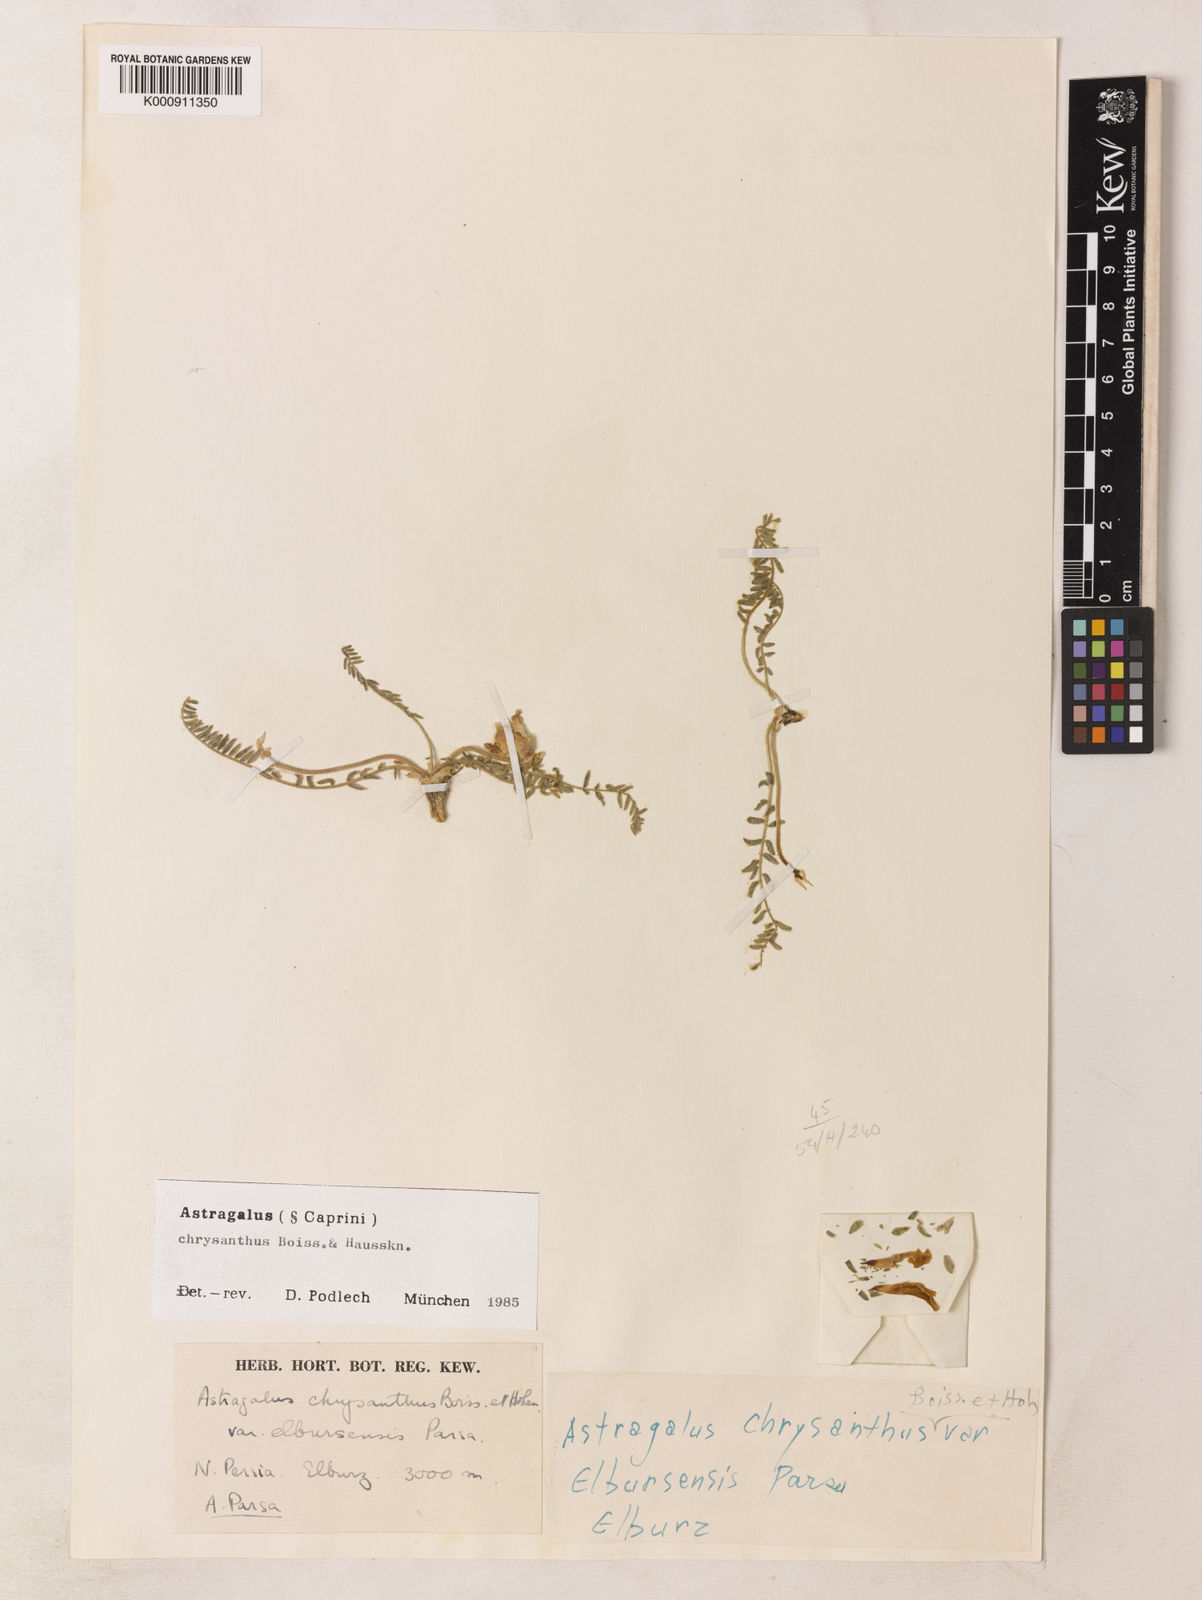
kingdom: Plantae
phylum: Tracheophyta
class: Magnoliopsida
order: Fabales
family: Fabaceae
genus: Astragalus
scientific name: Astragalus chrysanthus
